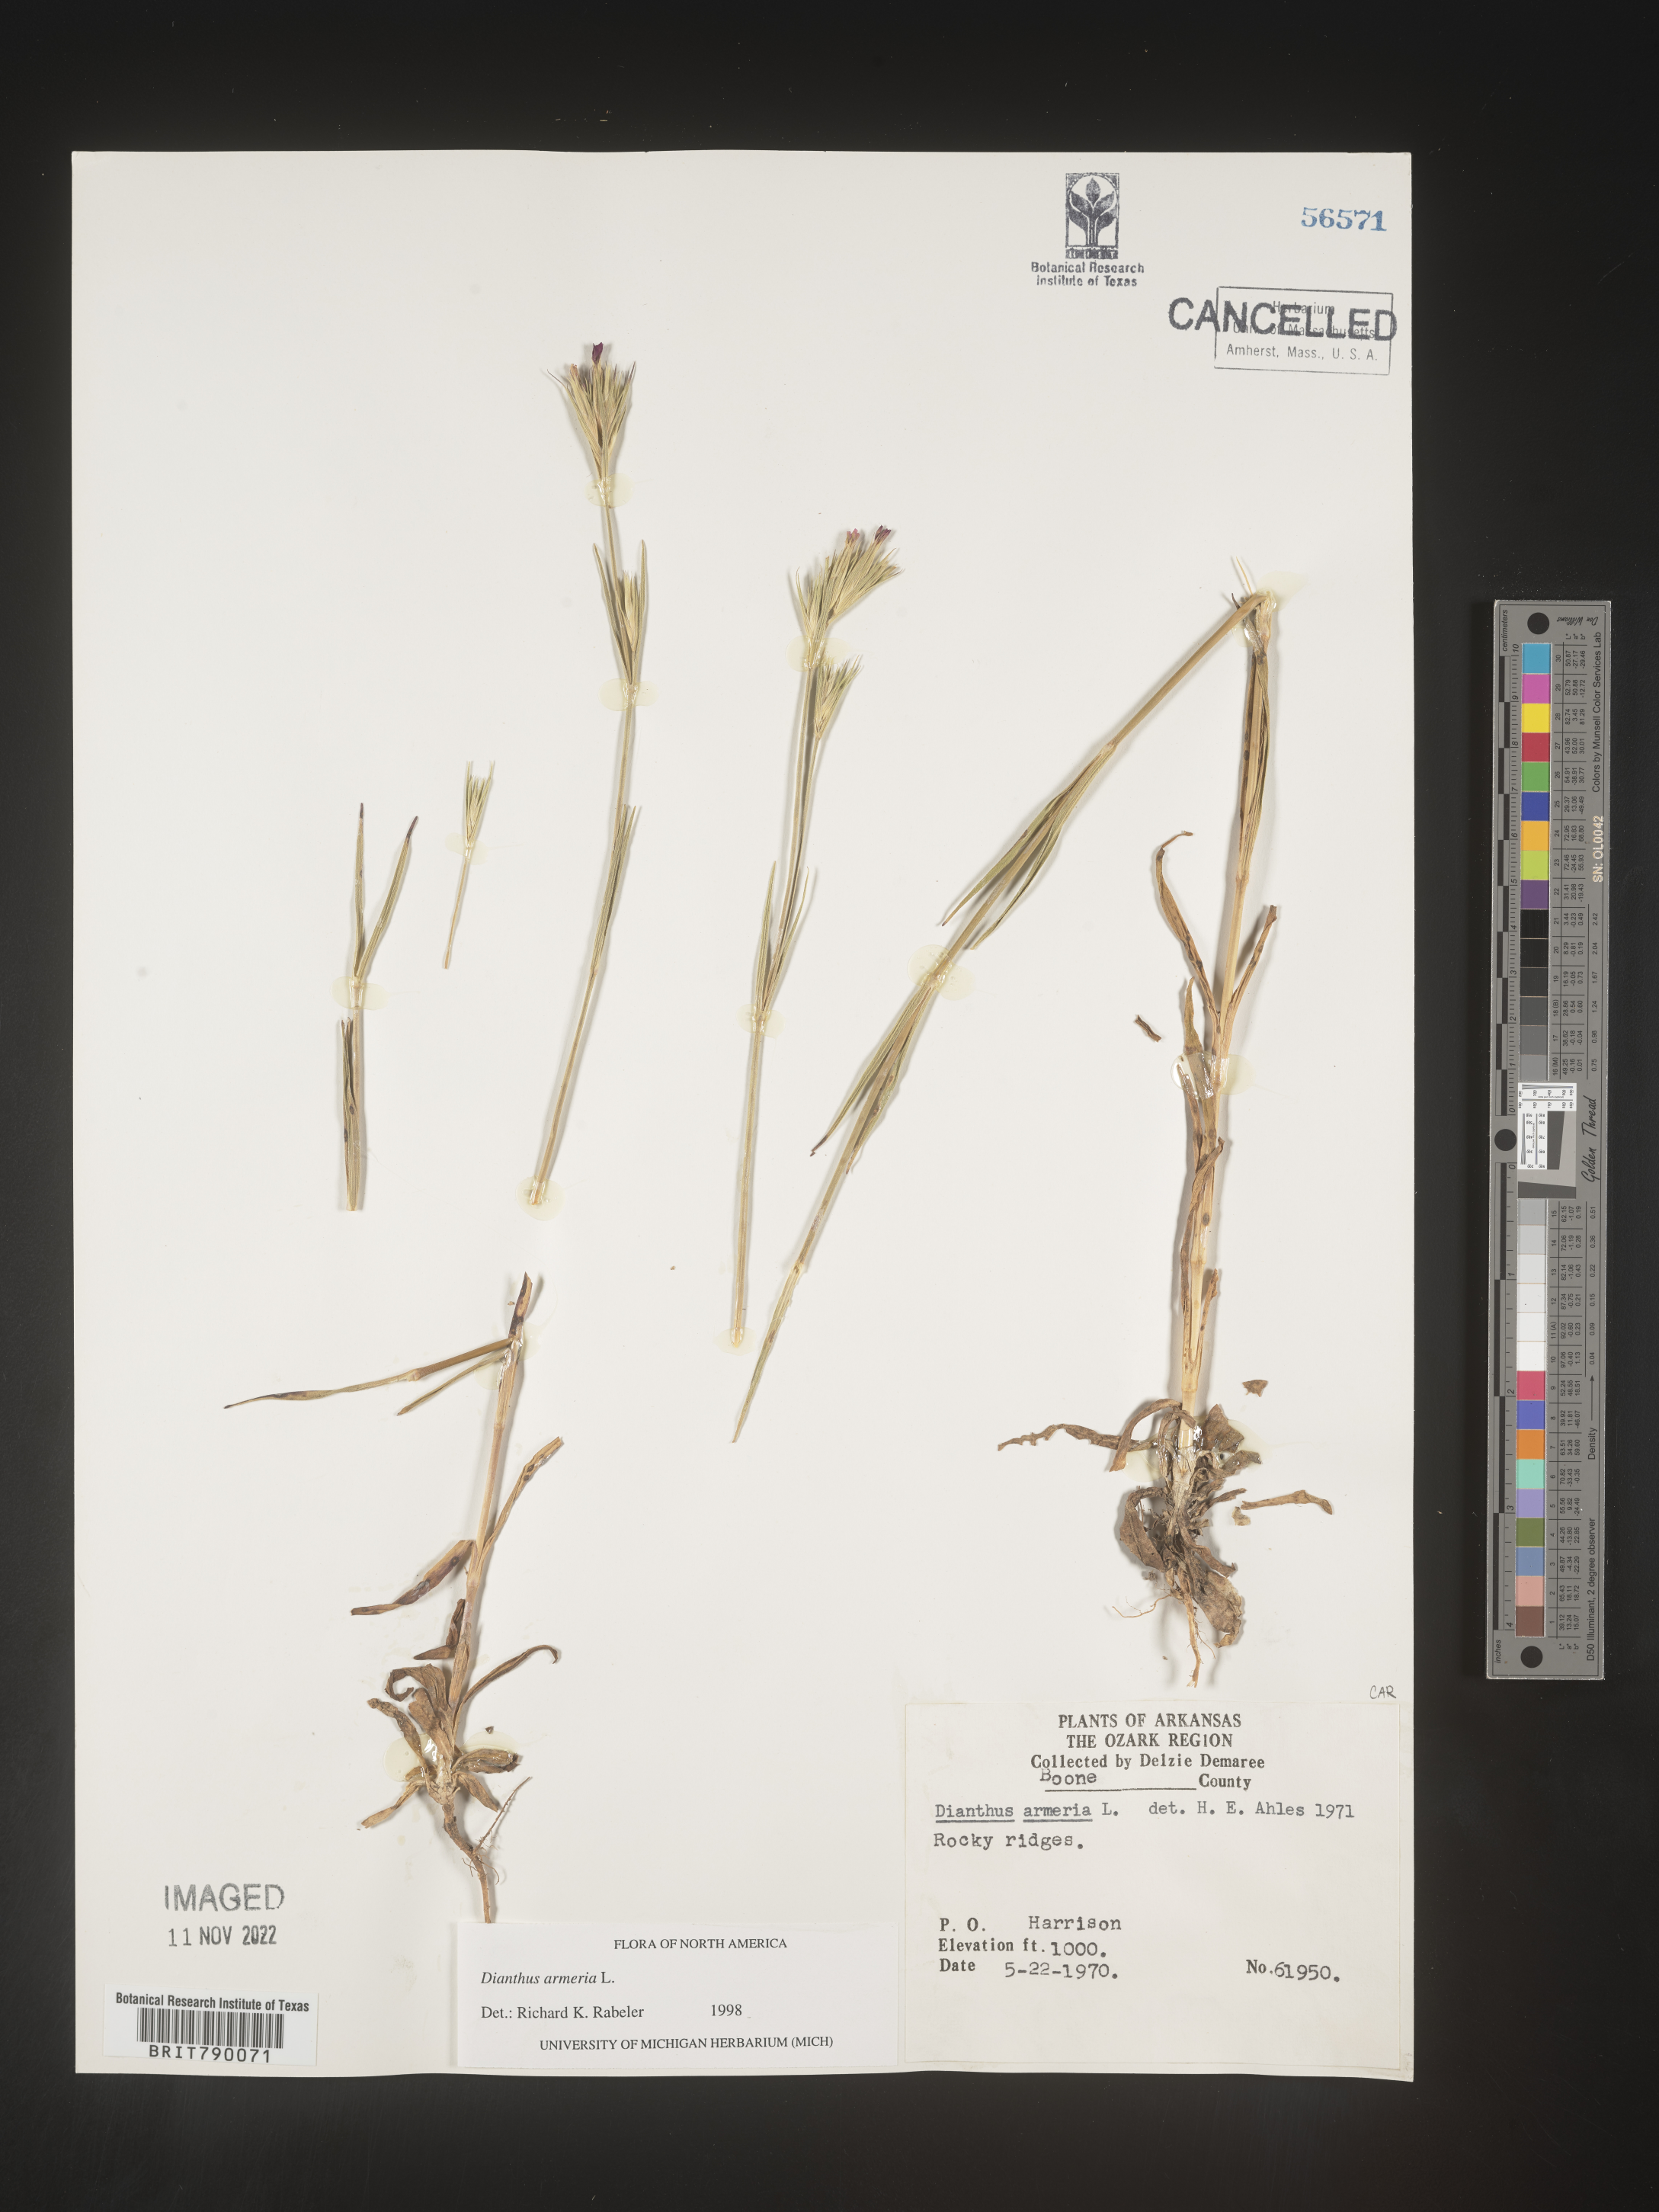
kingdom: Plantae
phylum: Tracheophyta
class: Magnoliopsida
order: Caryophyllales
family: Caryophyllaceae
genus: Dianthus
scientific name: Dianthus armeria
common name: Deptford pink
